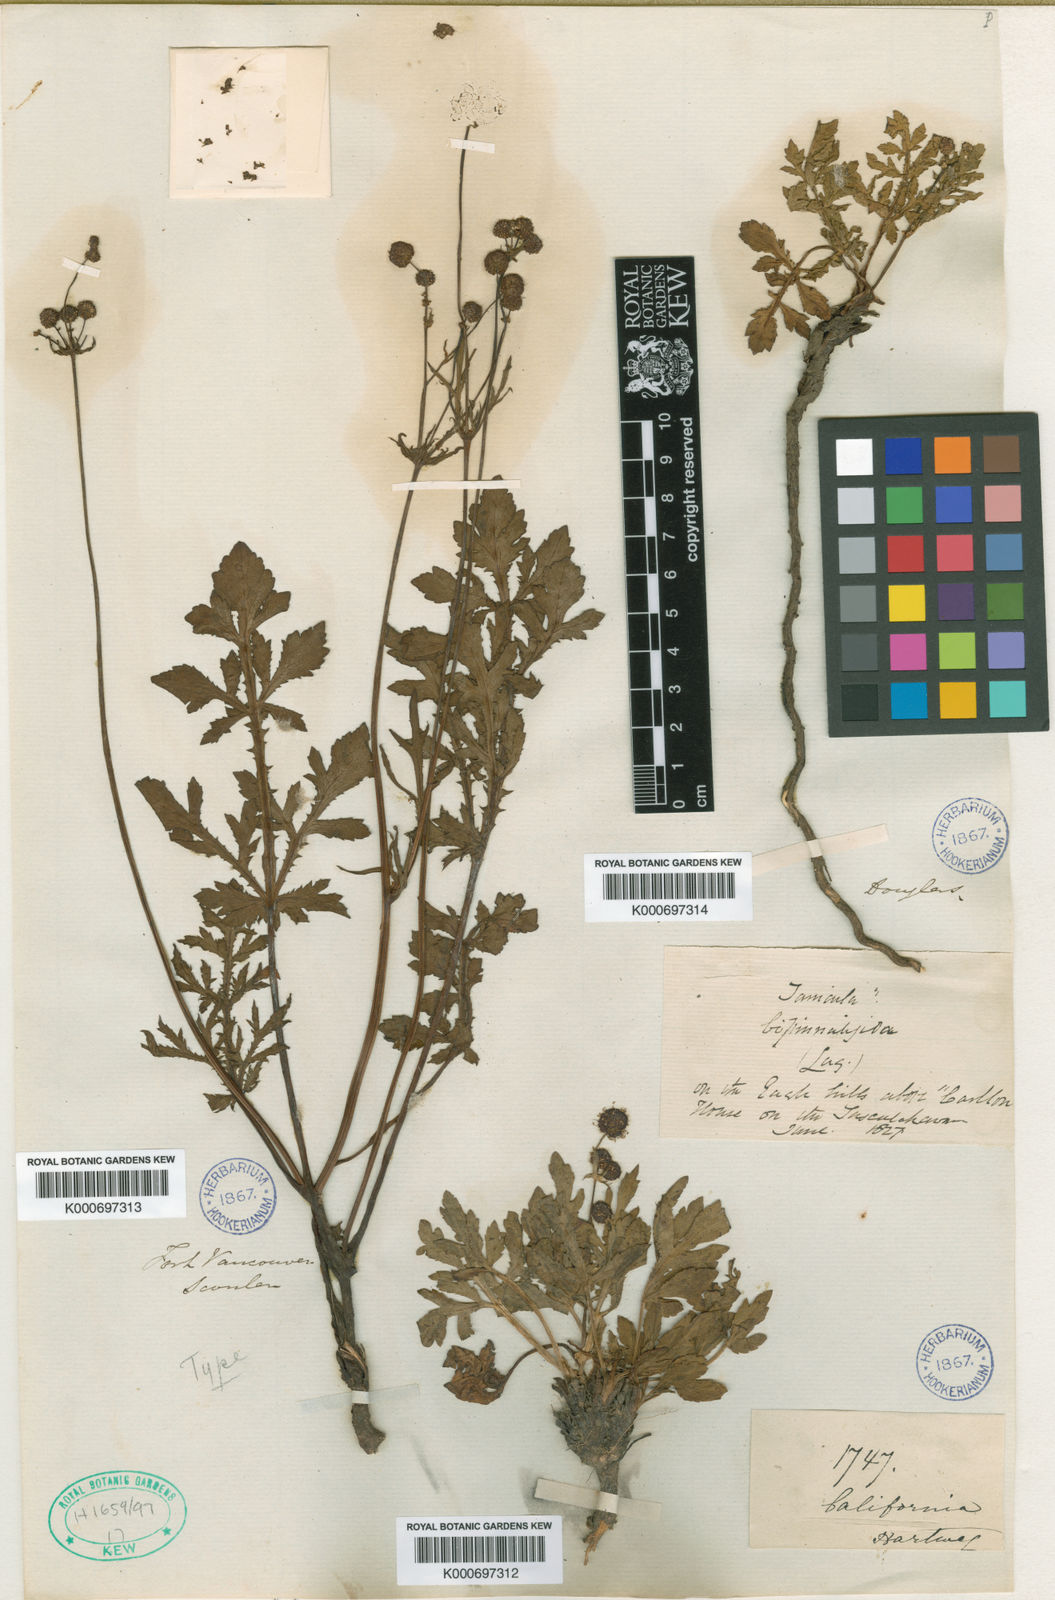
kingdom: Plantae
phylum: Tracheophyta
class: Magnoliopsida
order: Apiales
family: Apiaceae
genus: Sanicula
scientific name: Sanicula
